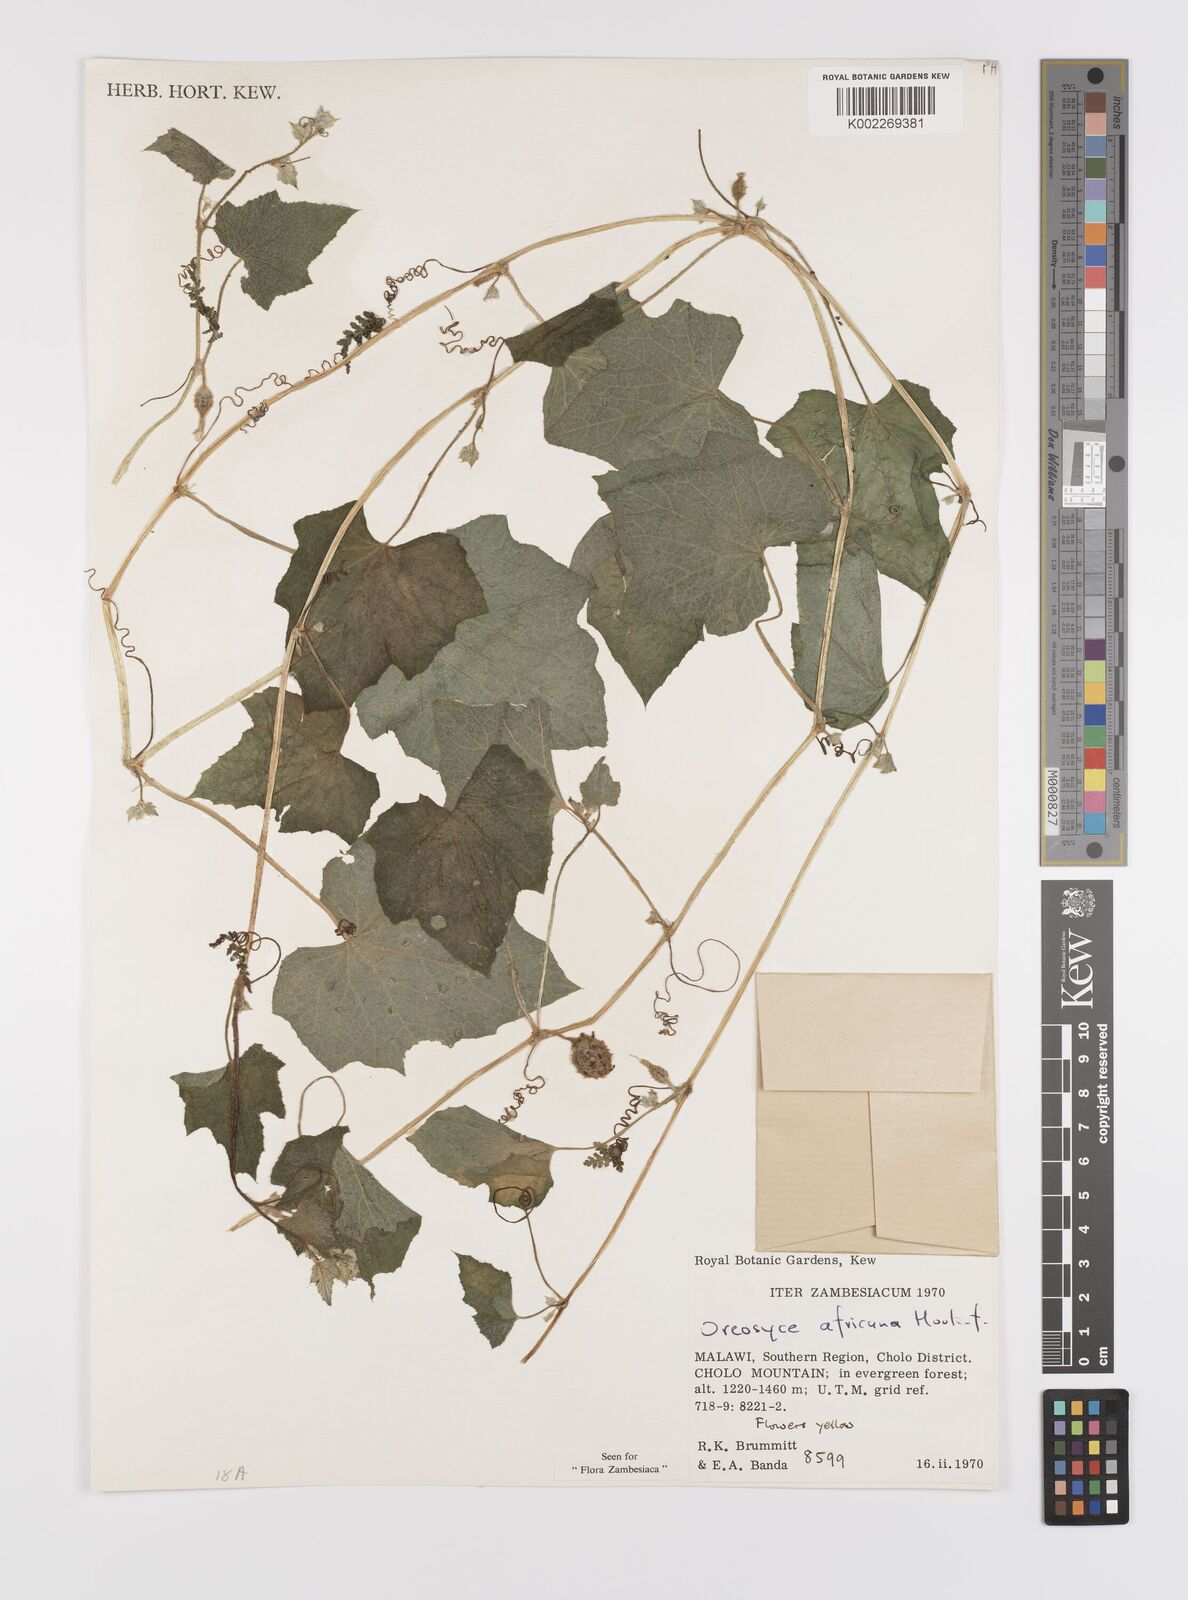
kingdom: Plantae
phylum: Tracheophyta
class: Magnoliopsida
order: Cucurbitales
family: Cucurbitaceae
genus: Cucumis
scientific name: Cucumis oreosyce
